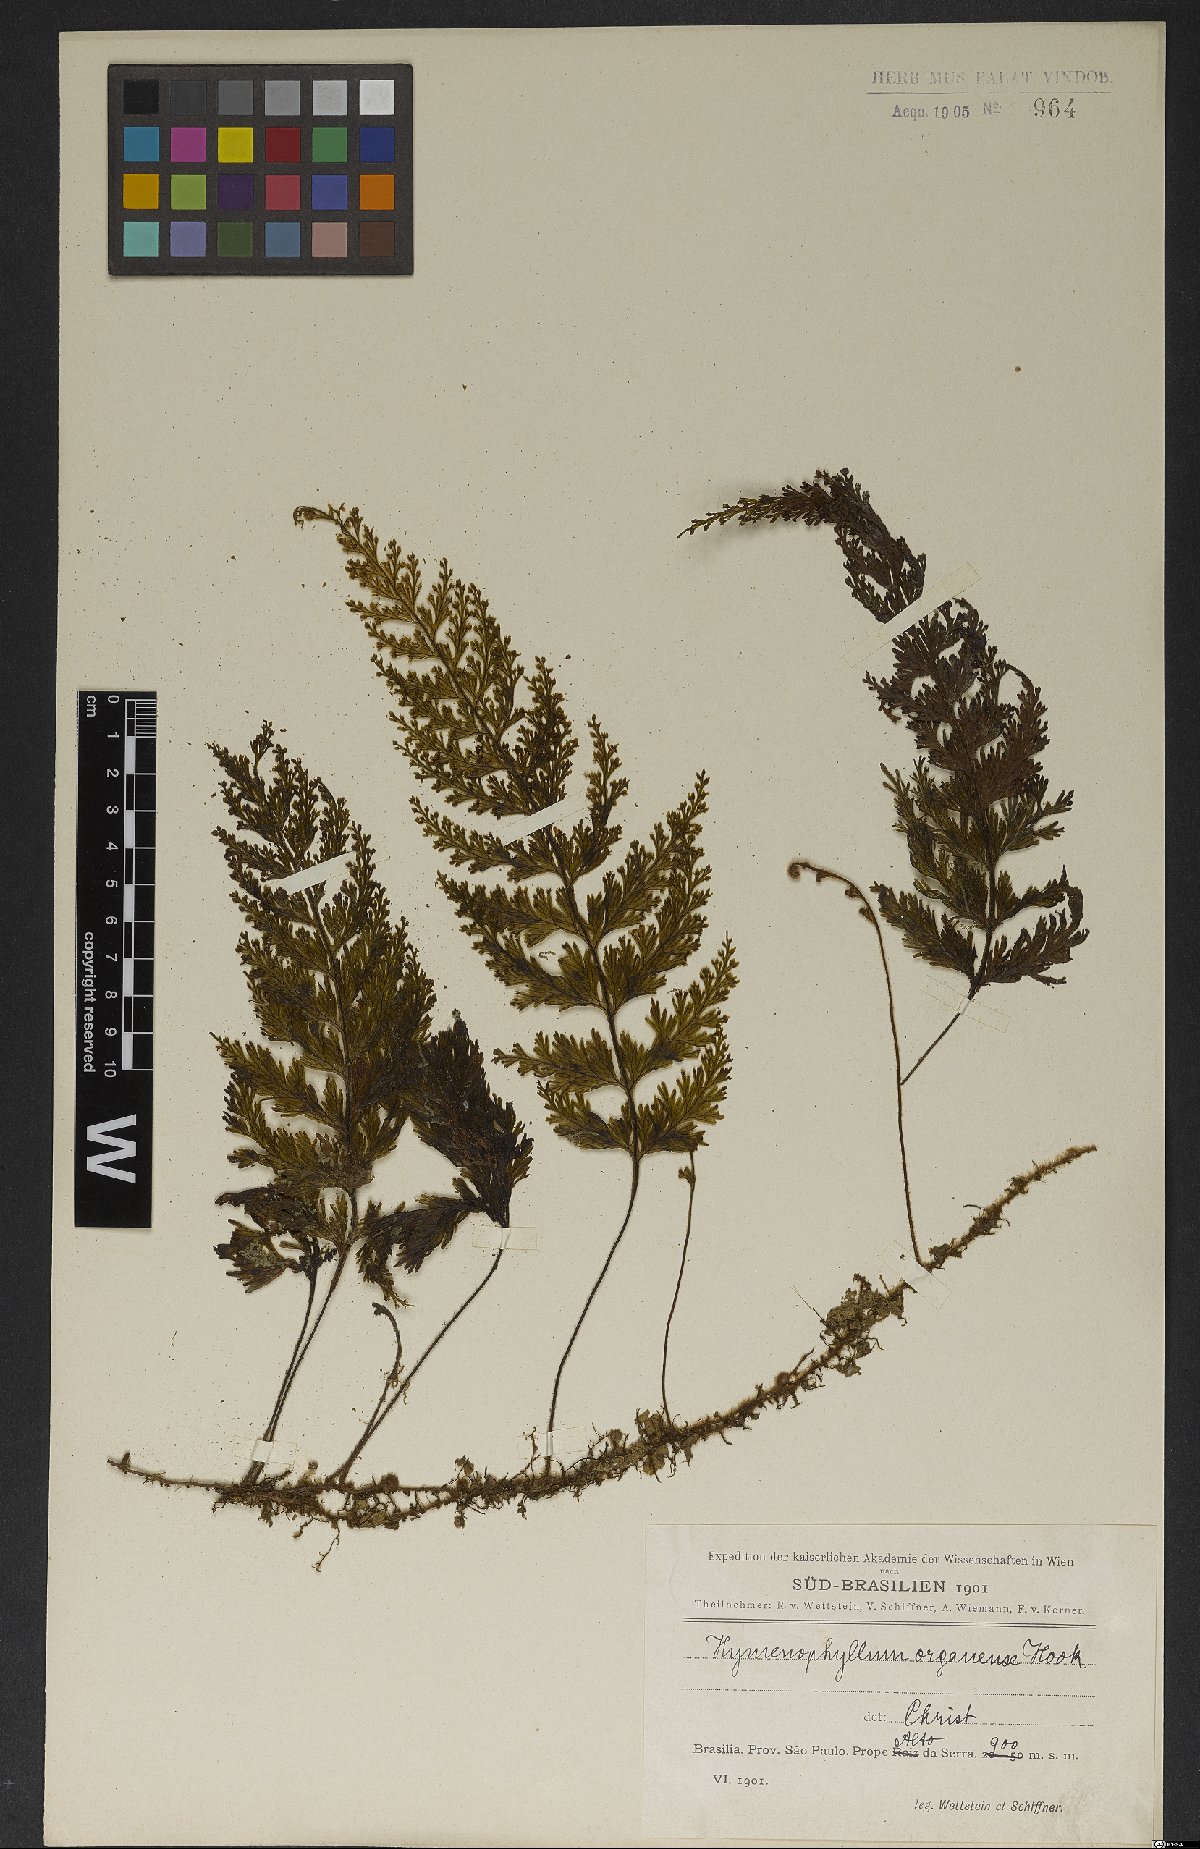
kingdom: Plantae
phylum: Tracheophyta
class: Polypodiopsida
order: Hymenophyllales
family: Hymenophyllaceae
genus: Hymenophyllum
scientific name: Hymenophyllum microcarpum
